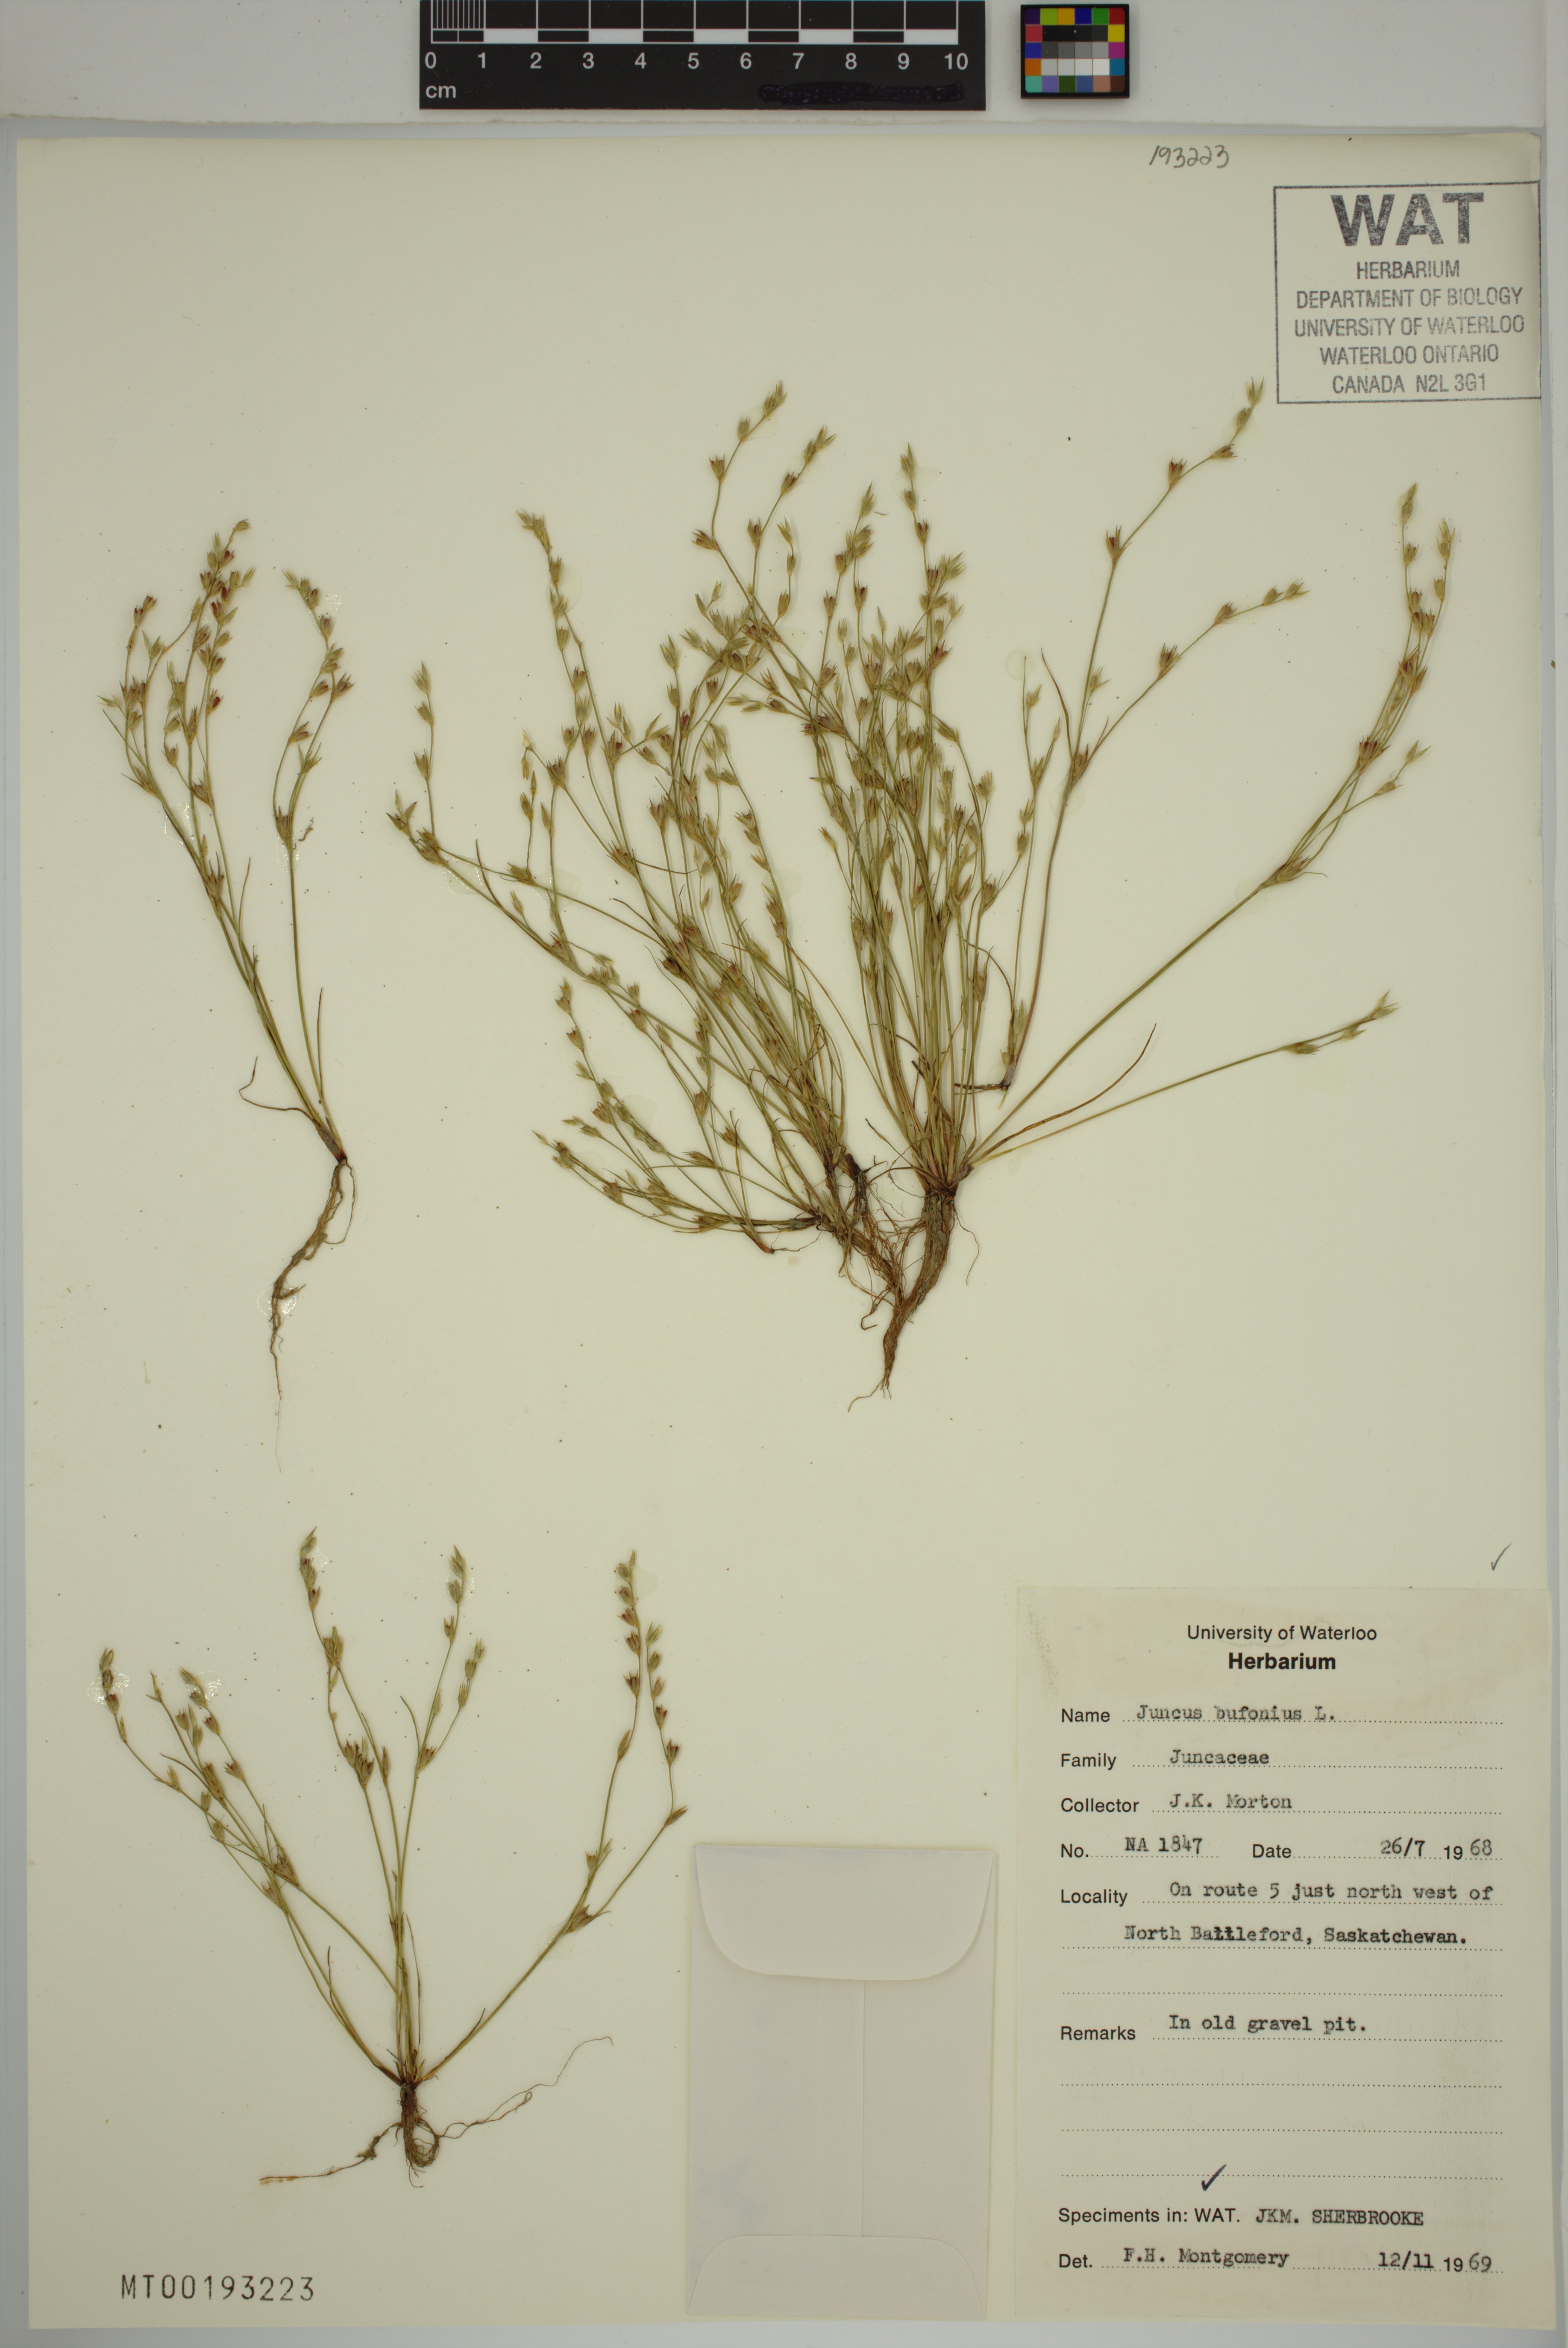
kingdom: Plantae
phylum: Tracheophyta
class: Liliopsida
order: Poales
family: Juncaceae
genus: Juncus
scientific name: Juncus bufonius
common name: Toad rush
